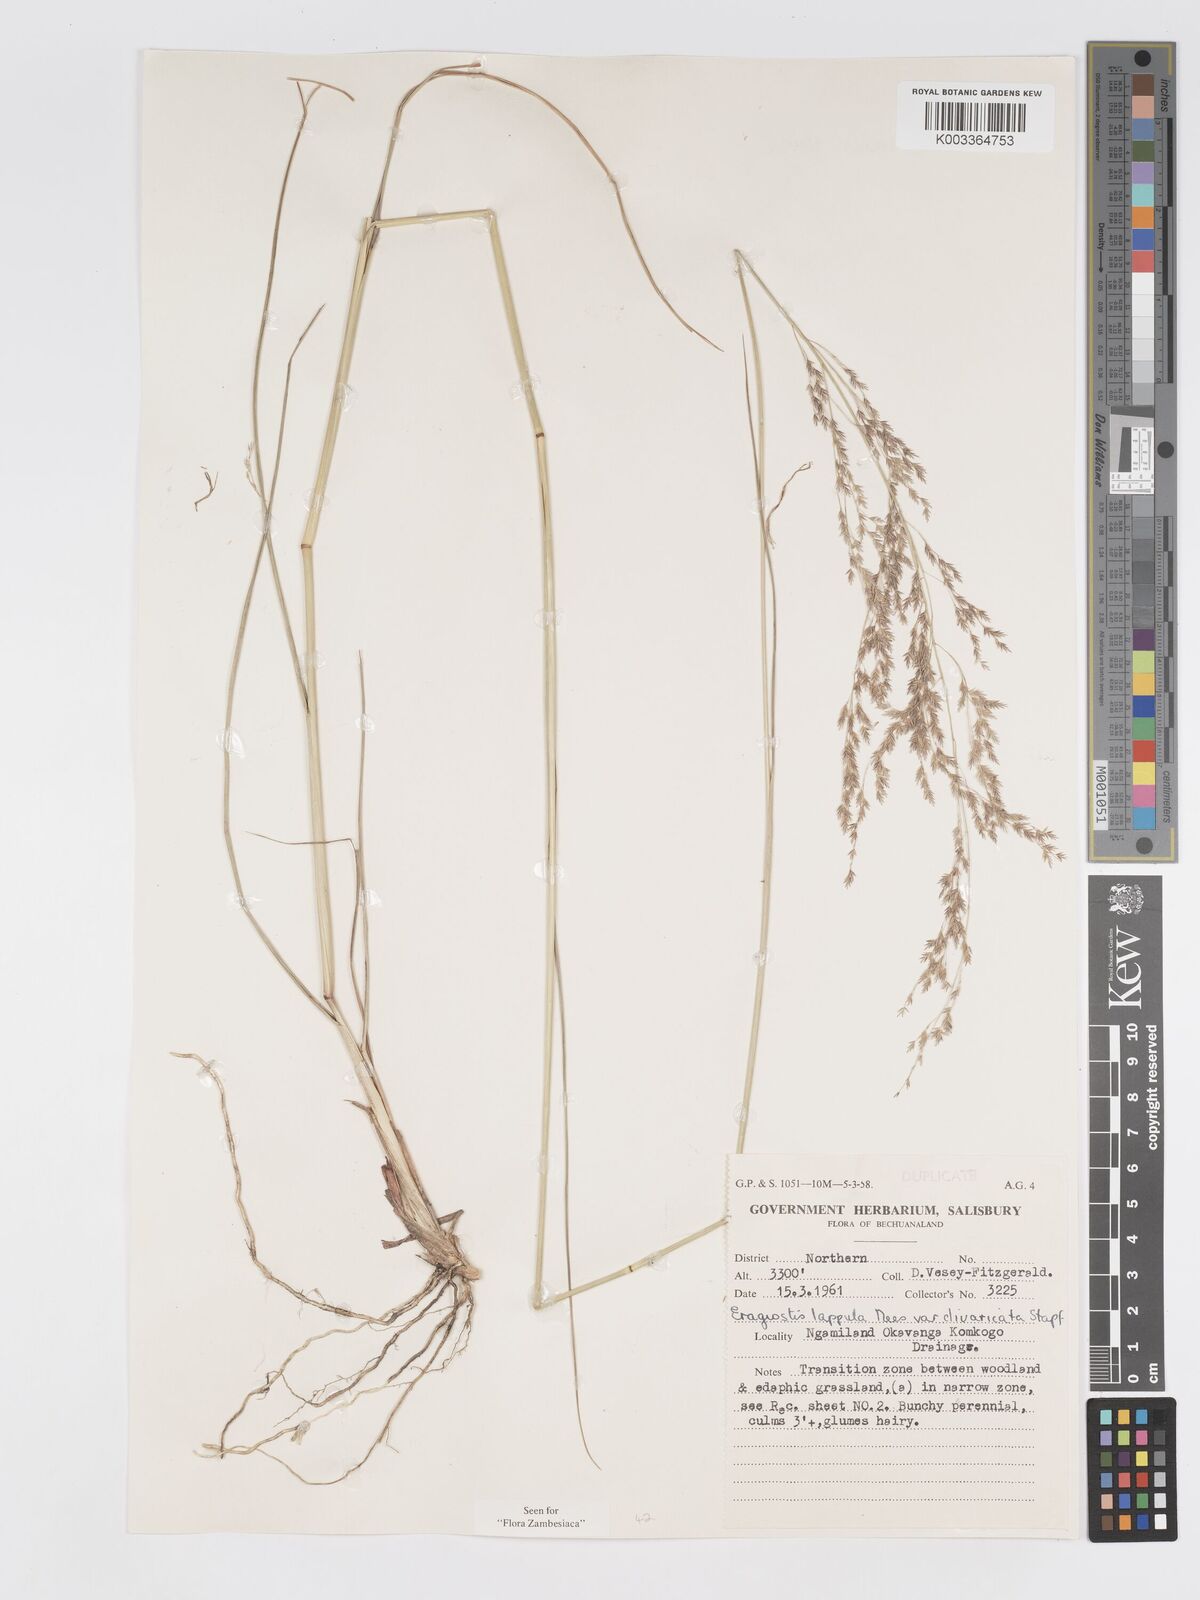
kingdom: Plantae
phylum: Tracheophyta
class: Liliopsida
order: Poales
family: Poaceae
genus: Eragrostis
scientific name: Eragrostis lappula
